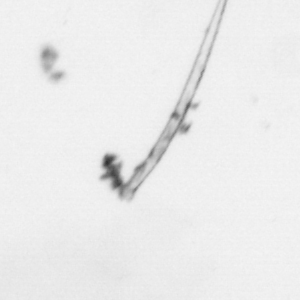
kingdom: Chromista
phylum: Ochrophyta
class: Bacillariophyceae
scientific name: Bacillariophyceae
